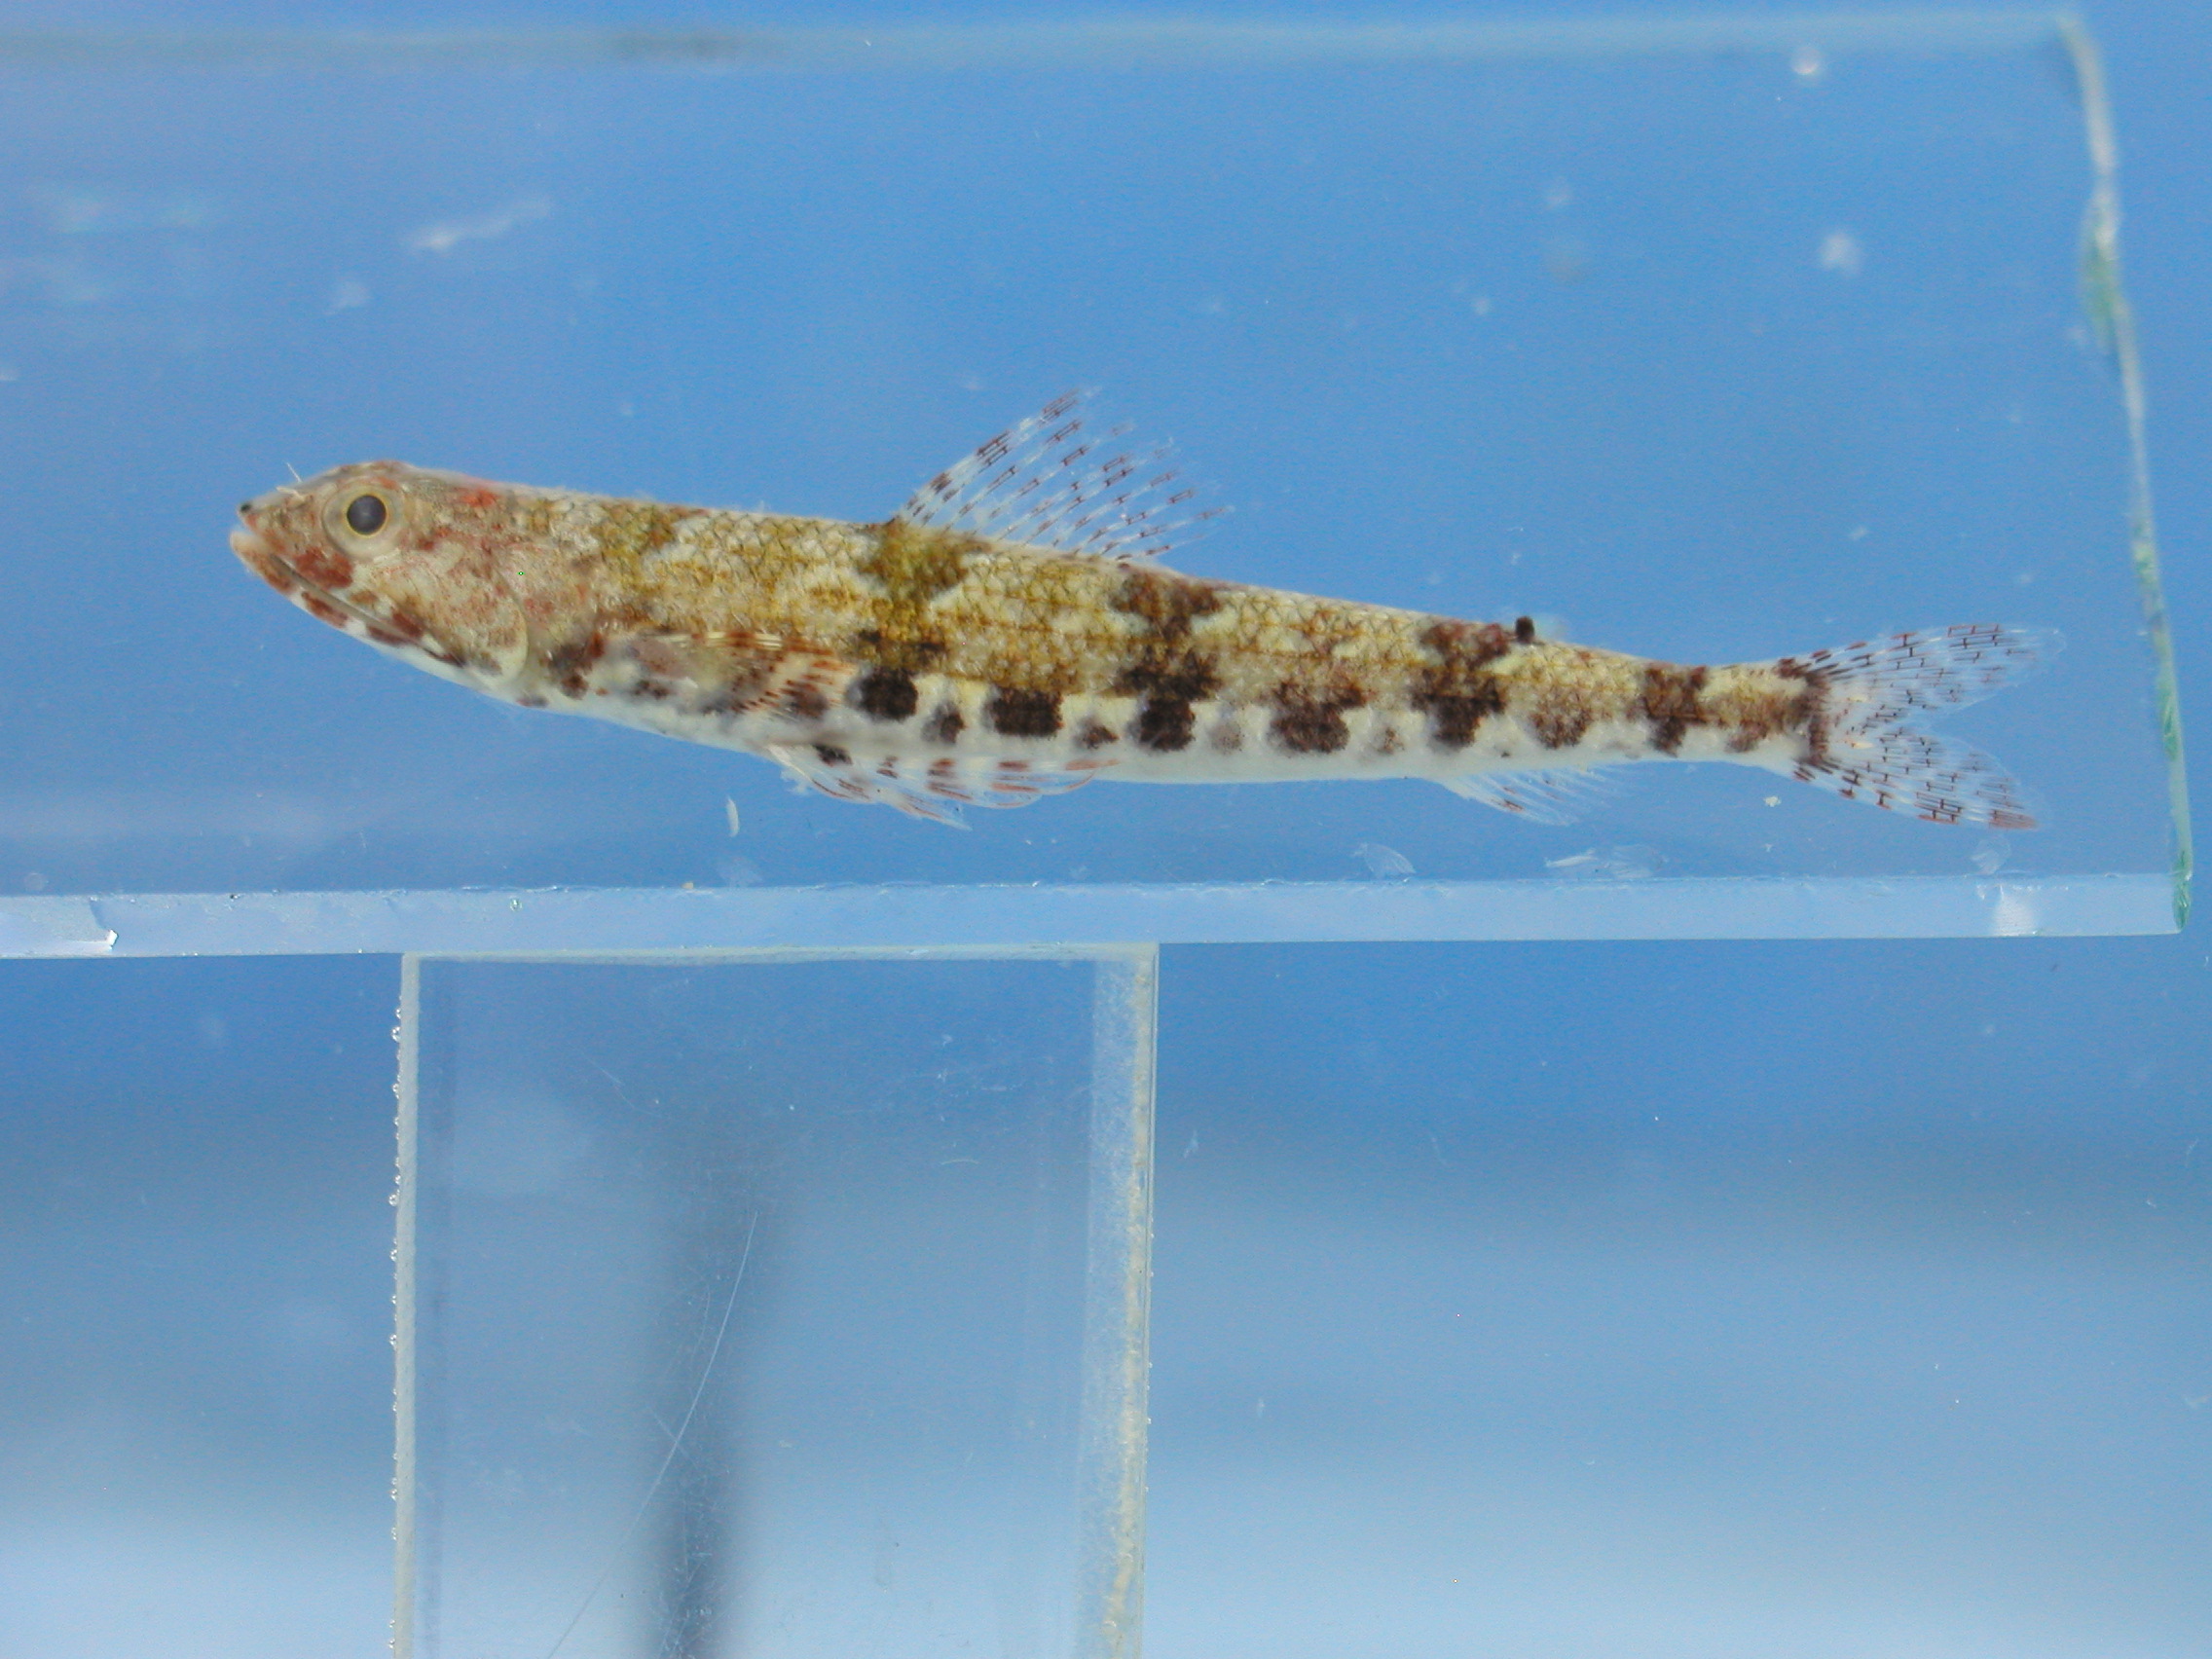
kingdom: Animalia
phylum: Chordata
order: Aulopiformes
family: Synodontidae
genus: Synodus
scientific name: Synodus binotatus
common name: Twospot lizardfish
